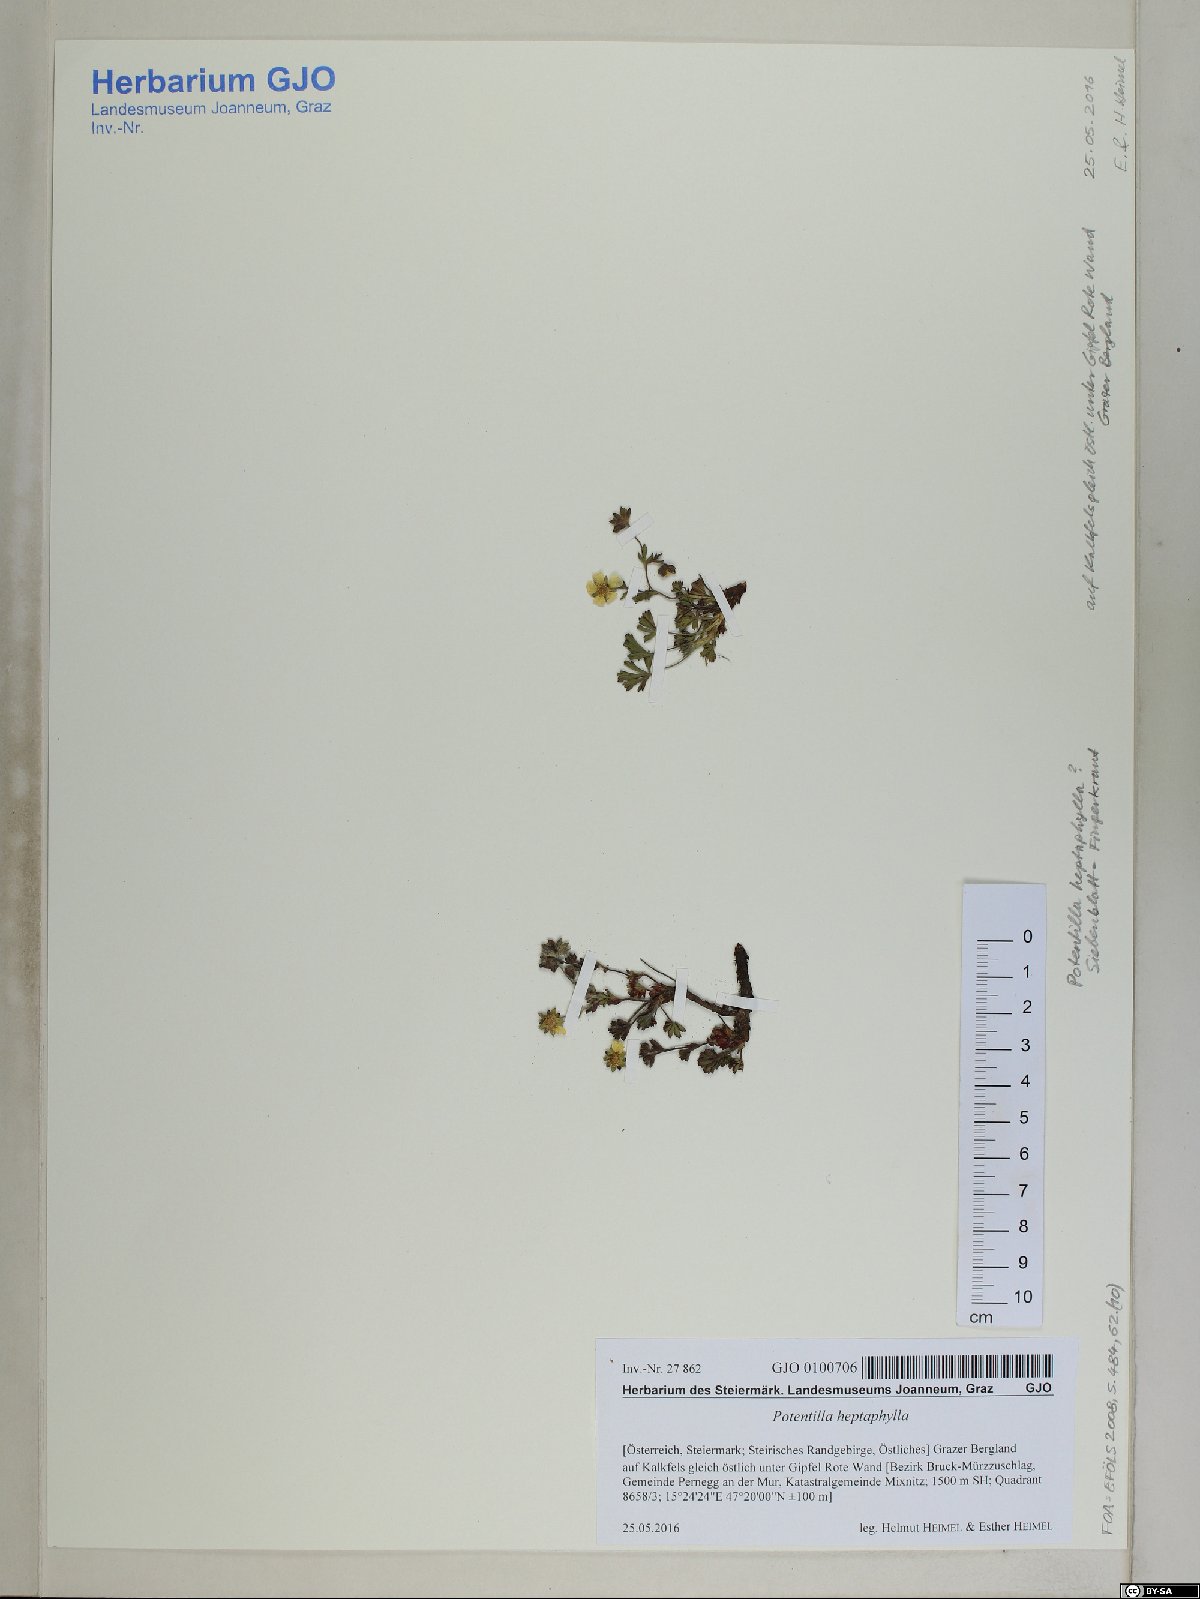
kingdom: Plantae
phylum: Tracheophyta
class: Magnoliopsida
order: Rosales
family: Rosaceae
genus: Potentilla
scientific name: Potentilla heptaphylla
